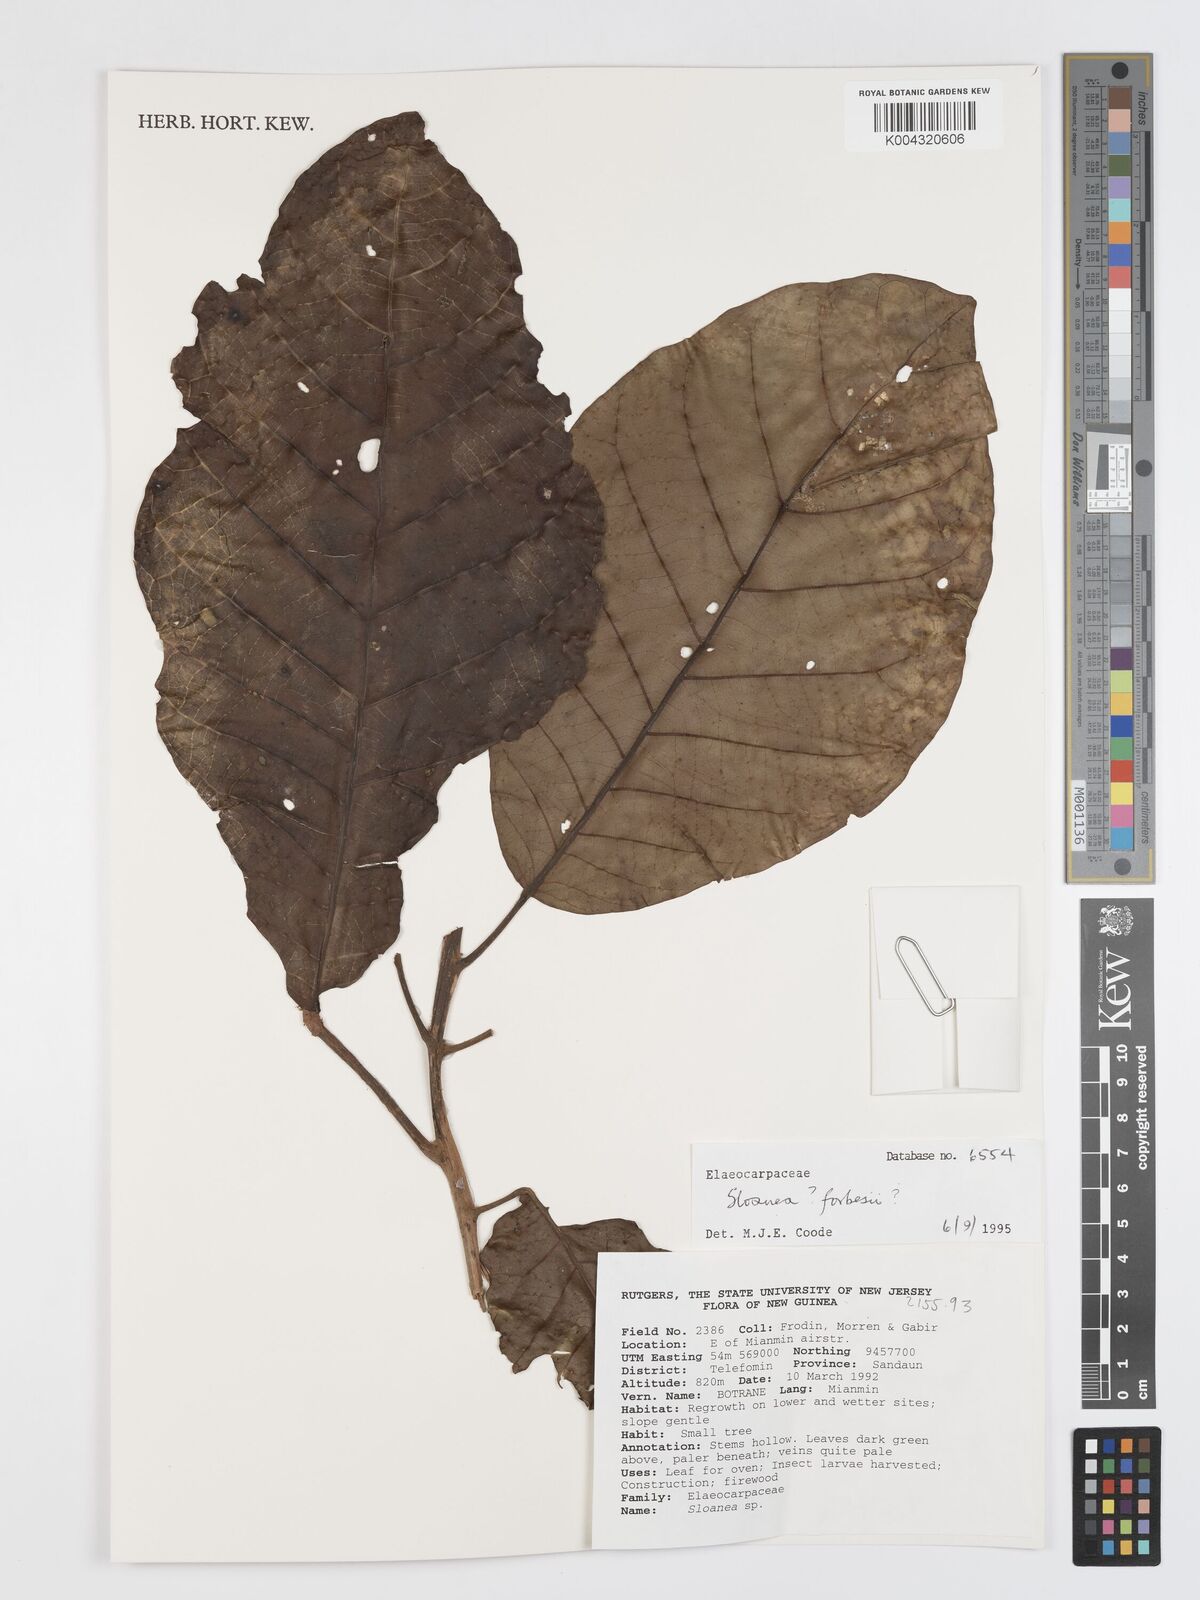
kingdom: Plantae
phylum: Tracheophyta
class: Magnoliopsida
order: Oxalidales
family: Elaeocarpaceae
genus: Sloanea
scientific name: Sloanea forbesii
